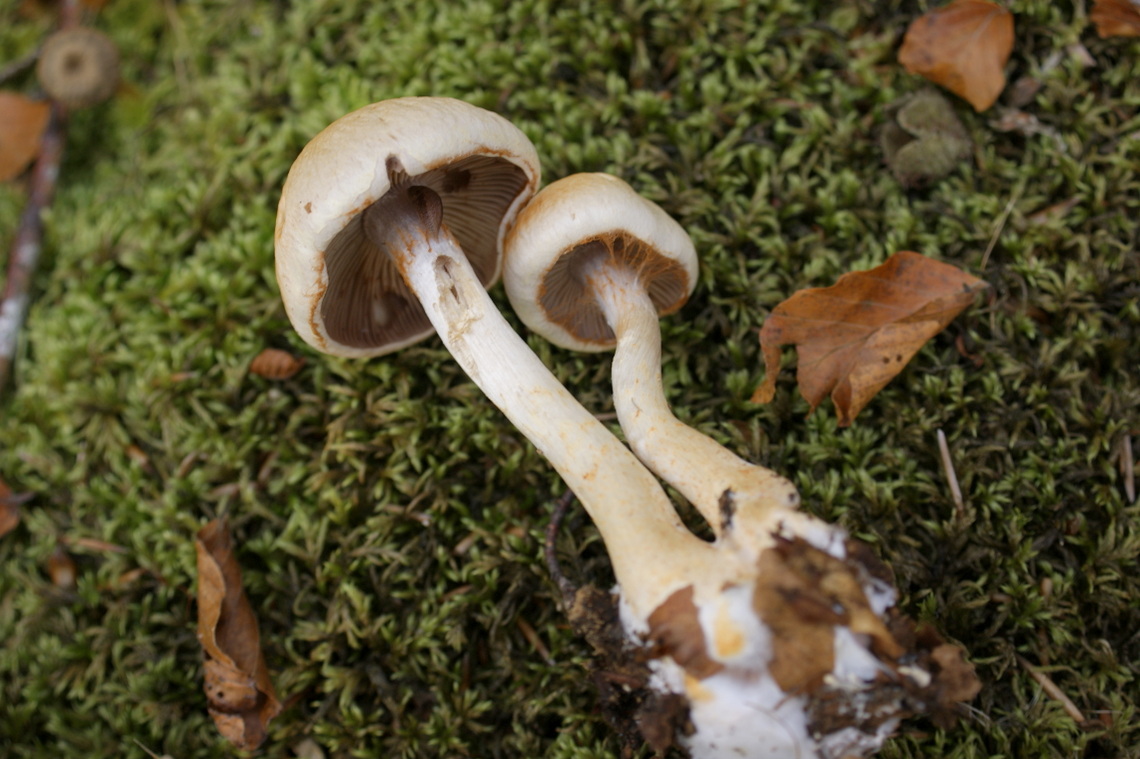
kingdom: Fungi
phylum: Basidiomycota
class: Agaricomycetes
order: Agaricales
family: Cortinariaceae
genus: Cortinarius
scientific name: Cortinarius albocyaneus
